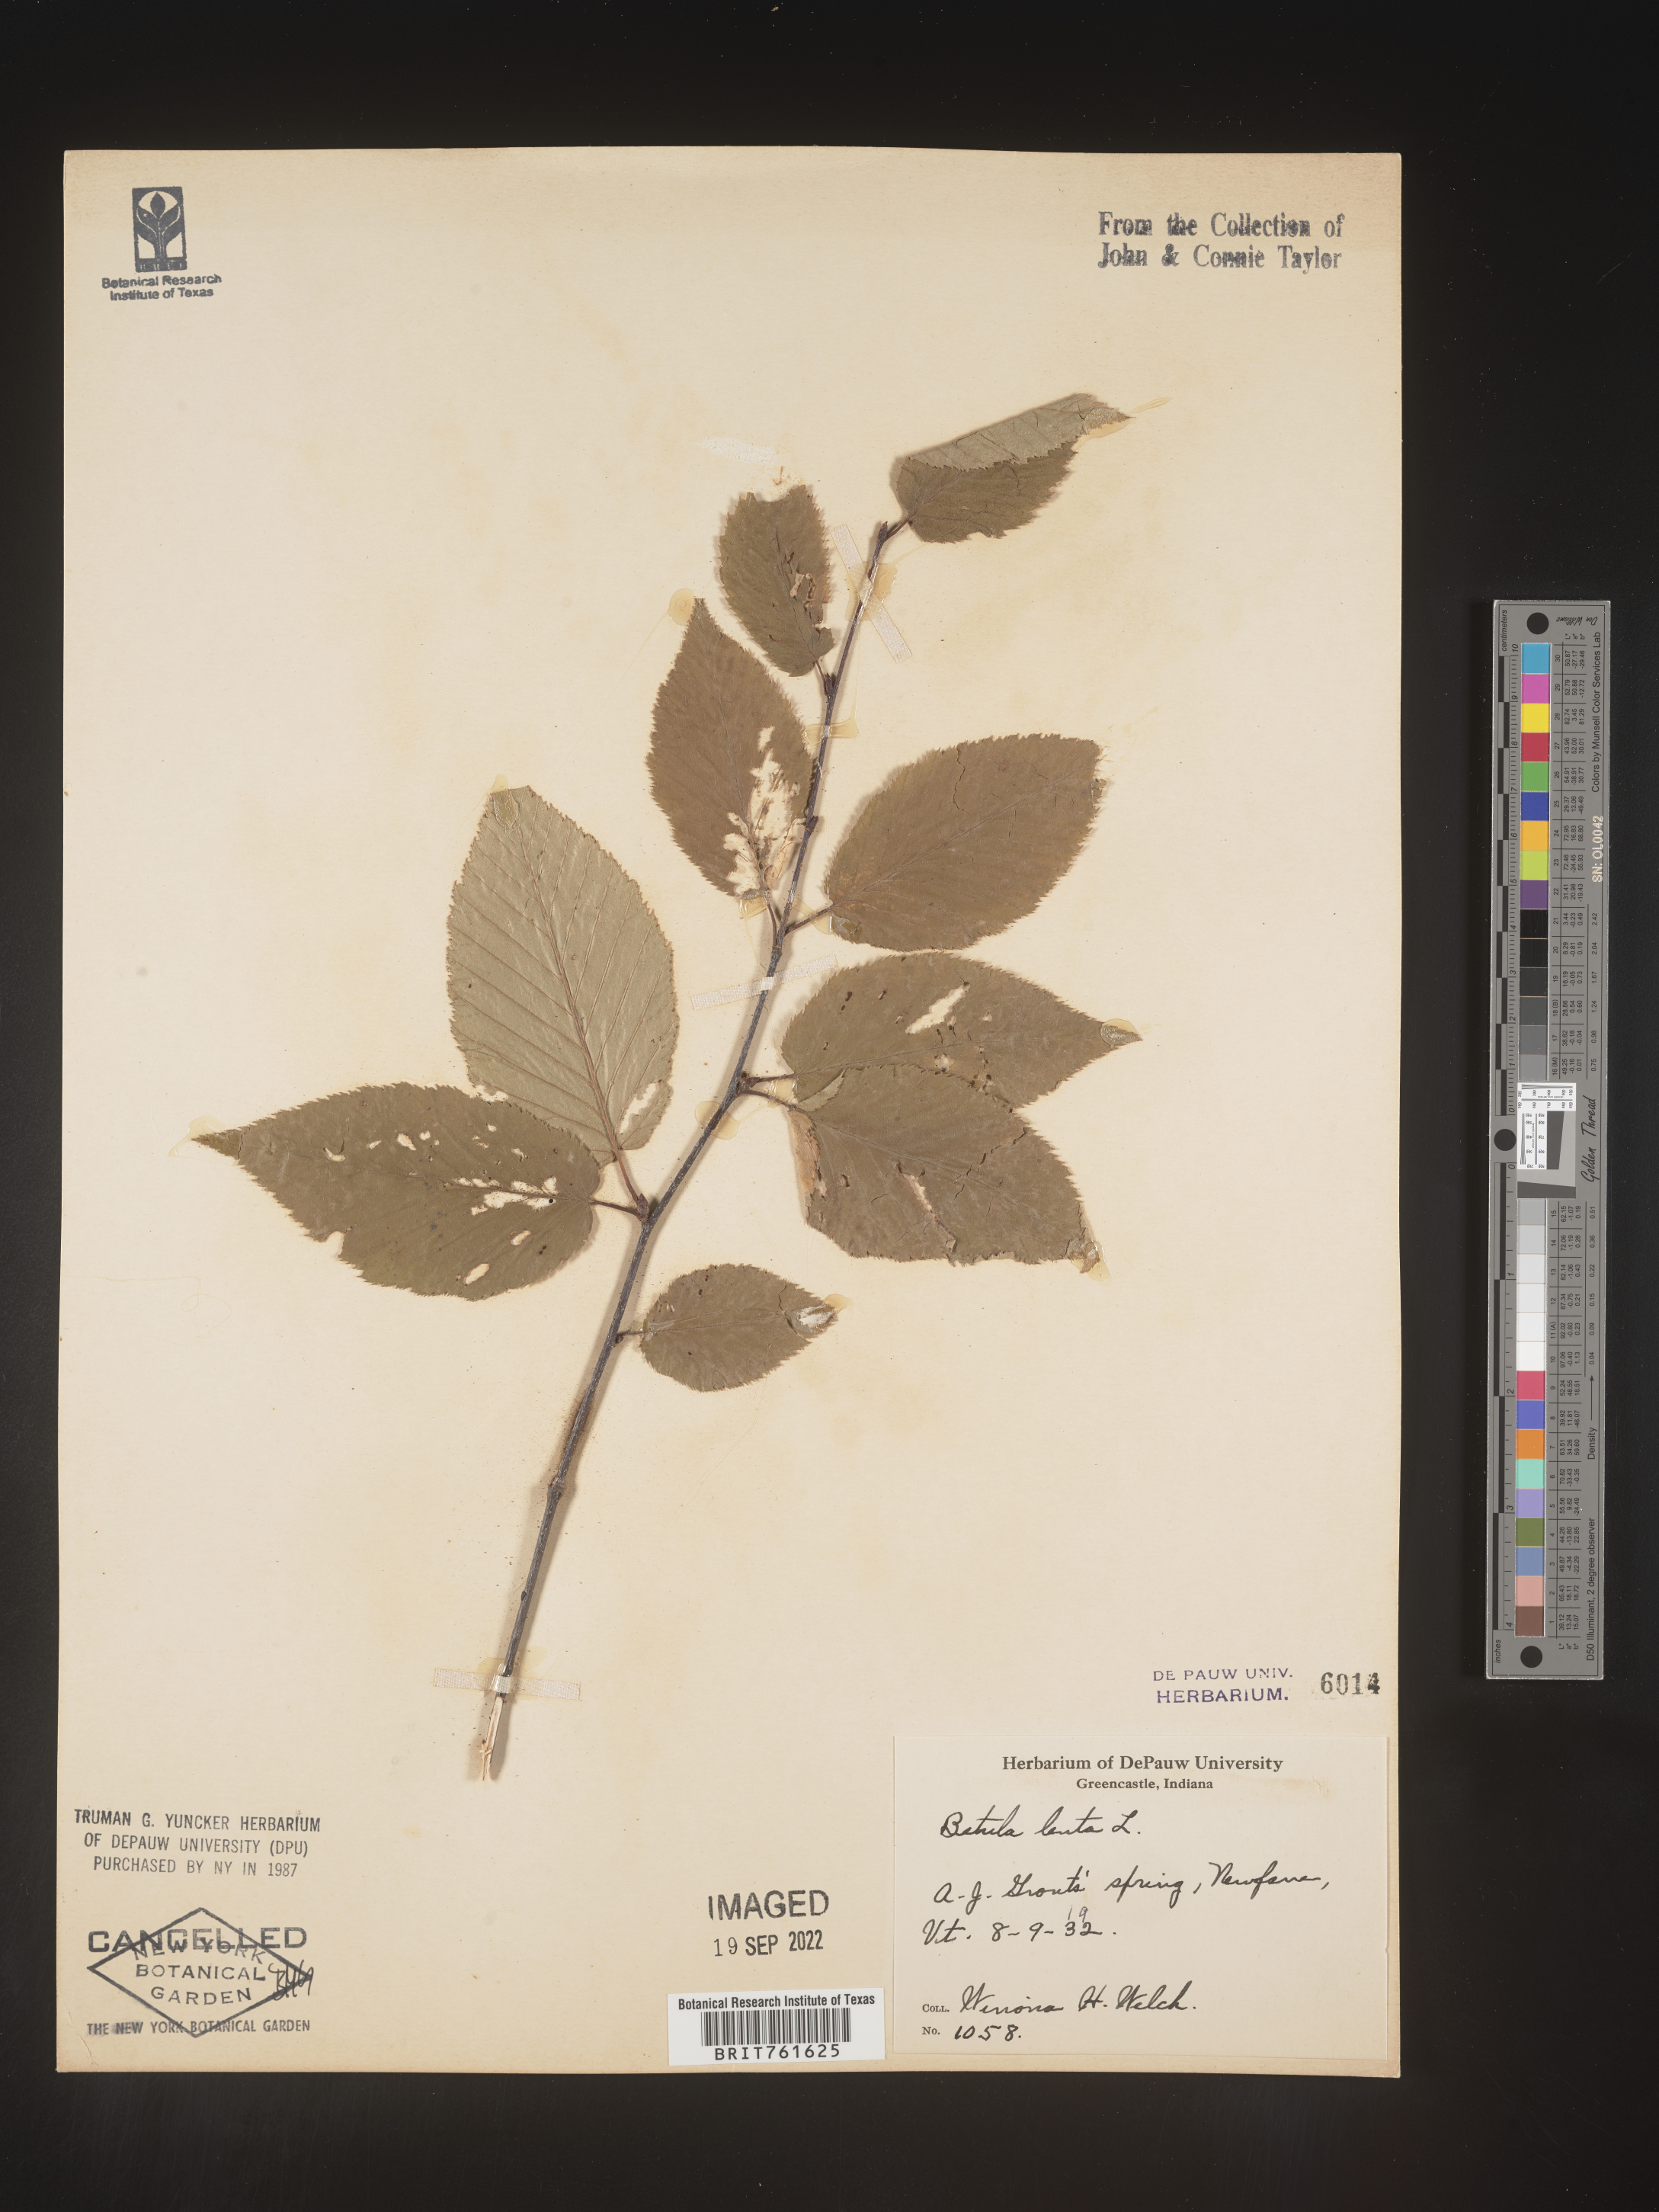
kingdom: Plantae
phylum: Tracheophyta
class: Magnoliopsida
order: Fagales
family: Betulaceae
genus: Betula
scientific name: Betula lenta
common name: Black birch
